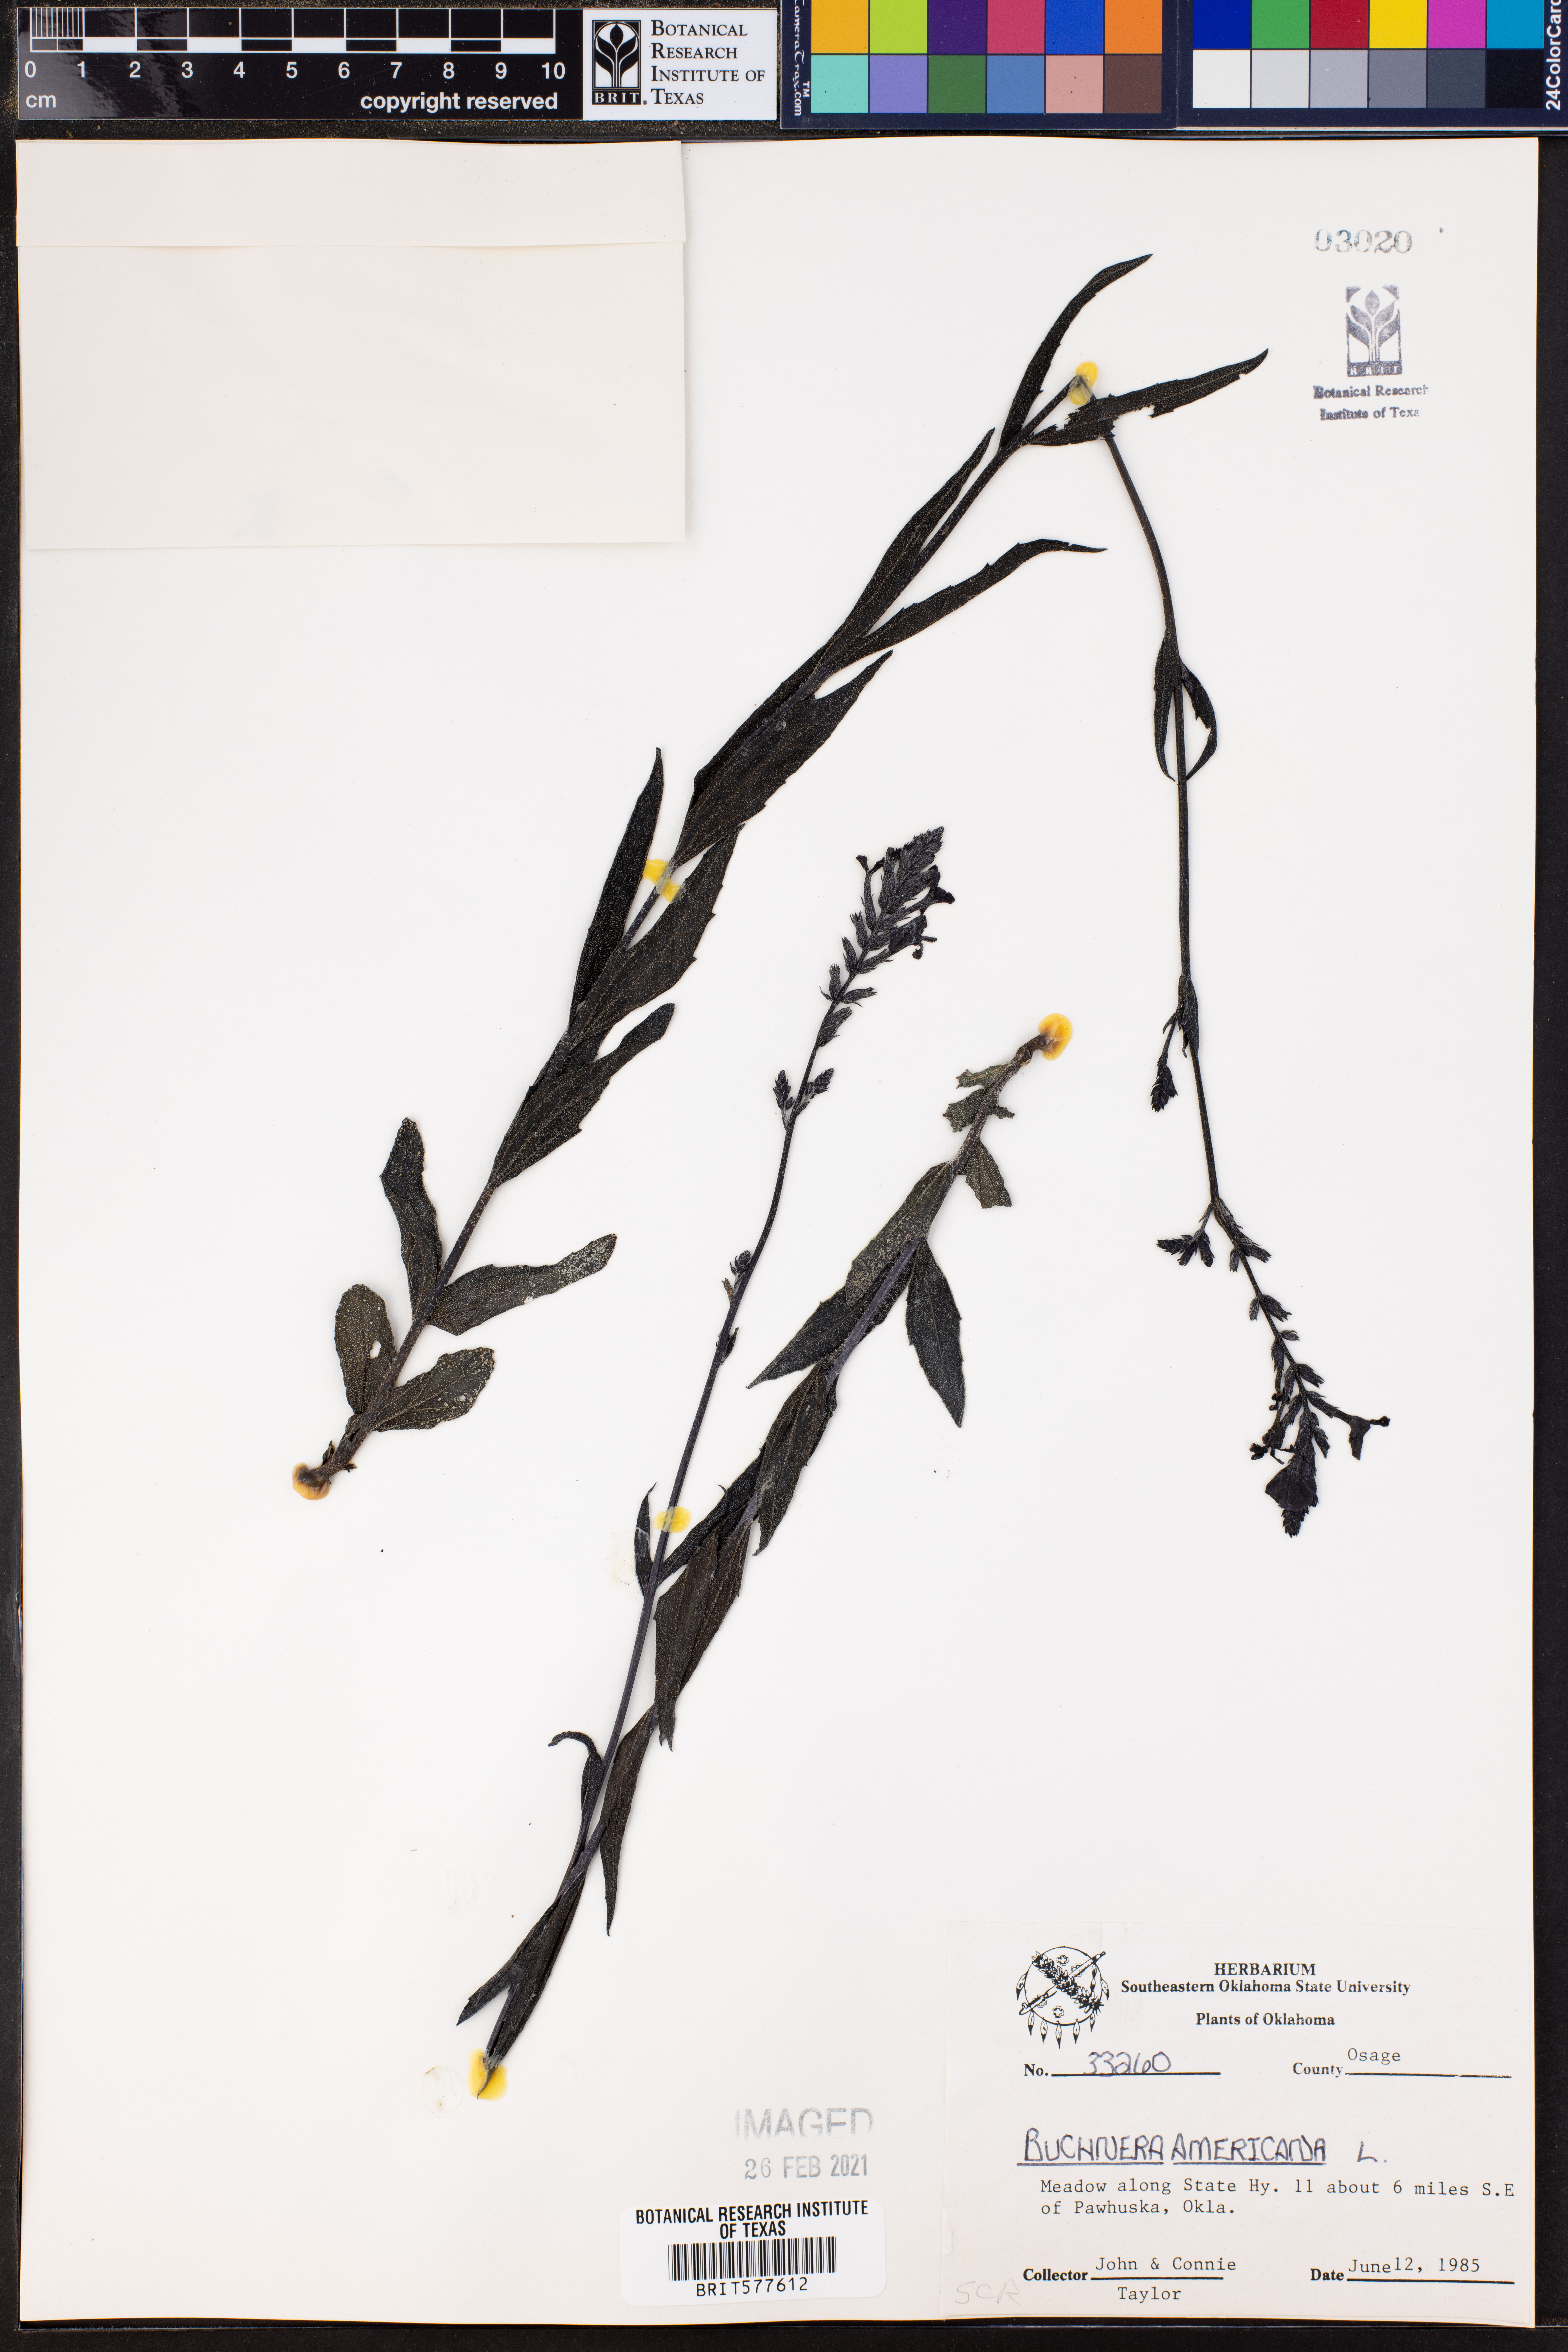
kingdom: Plantae
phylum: Tracheophyta
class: Magnoliopsida
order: Lamiales
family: Orobanchaceae
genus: Buchnera
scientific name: Buchnera americana
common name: American bluehearts
